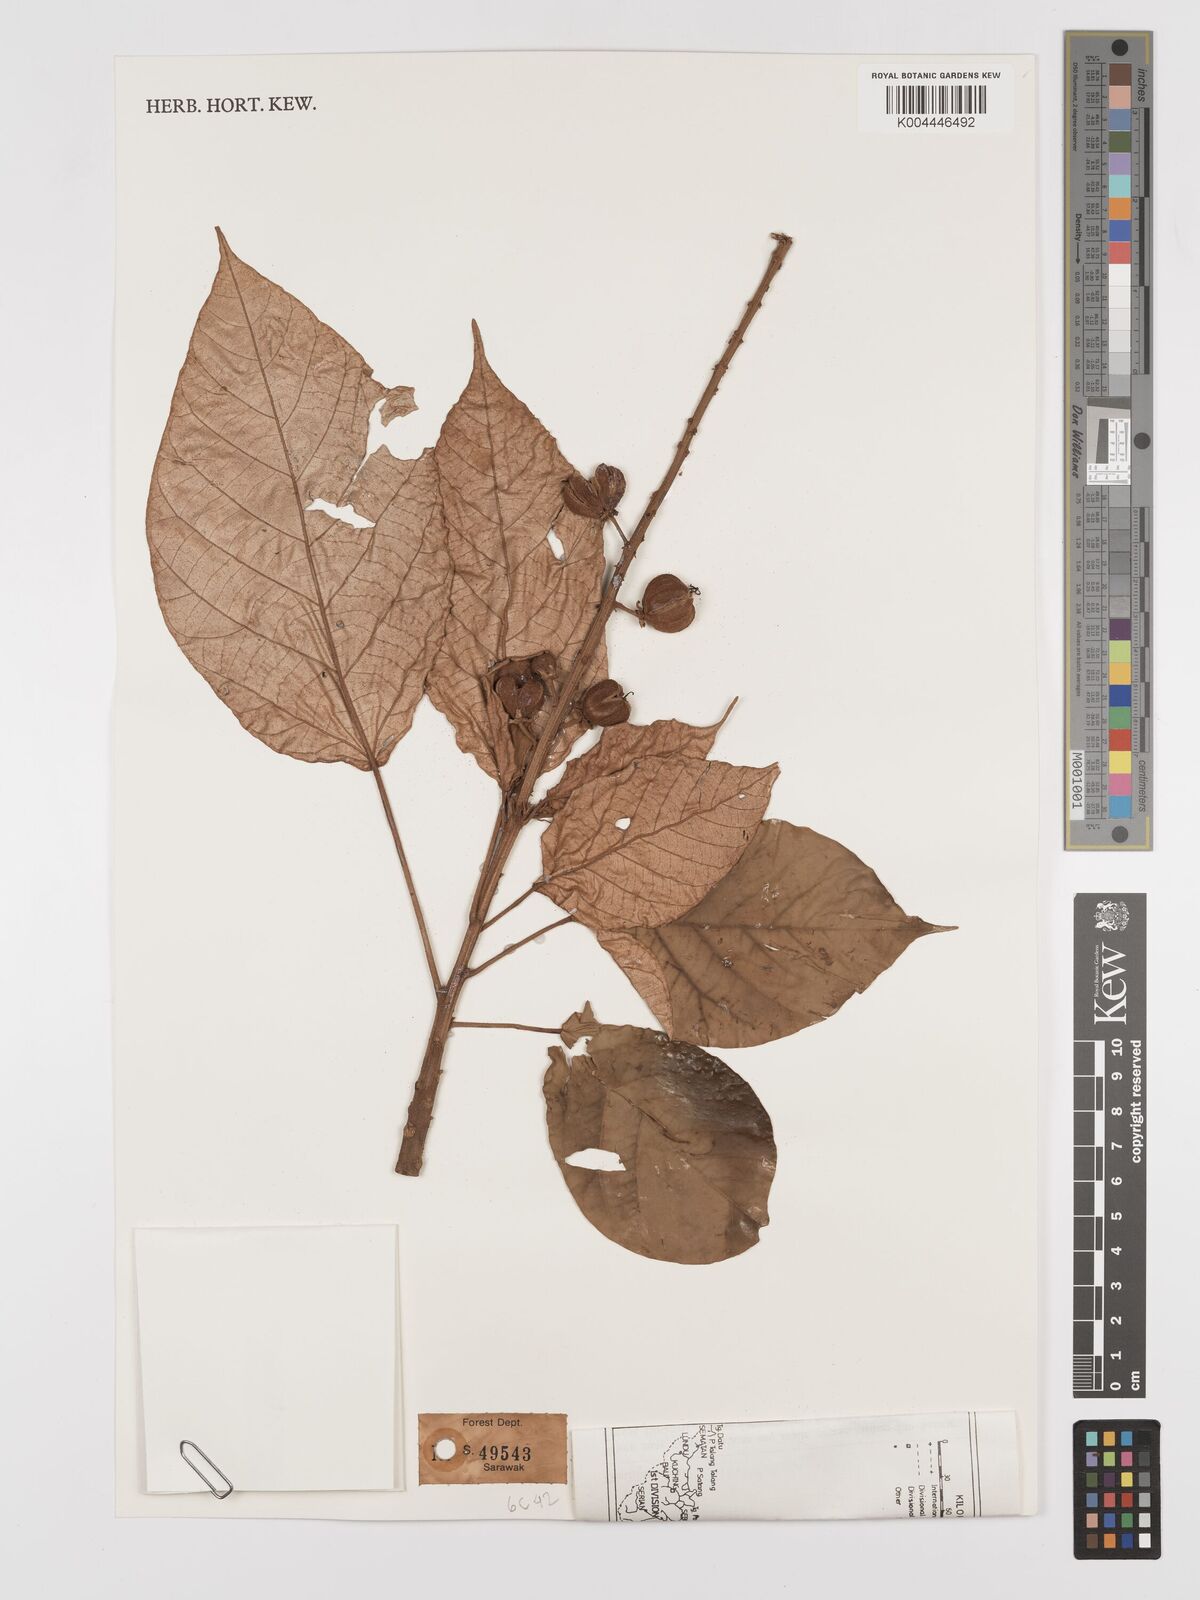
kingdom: Plantae
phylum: Tracheophyta
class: Magnoliopsida
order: Malpighiales
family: Euphorbiaceae
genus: Croton
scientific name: Croton argyratus
